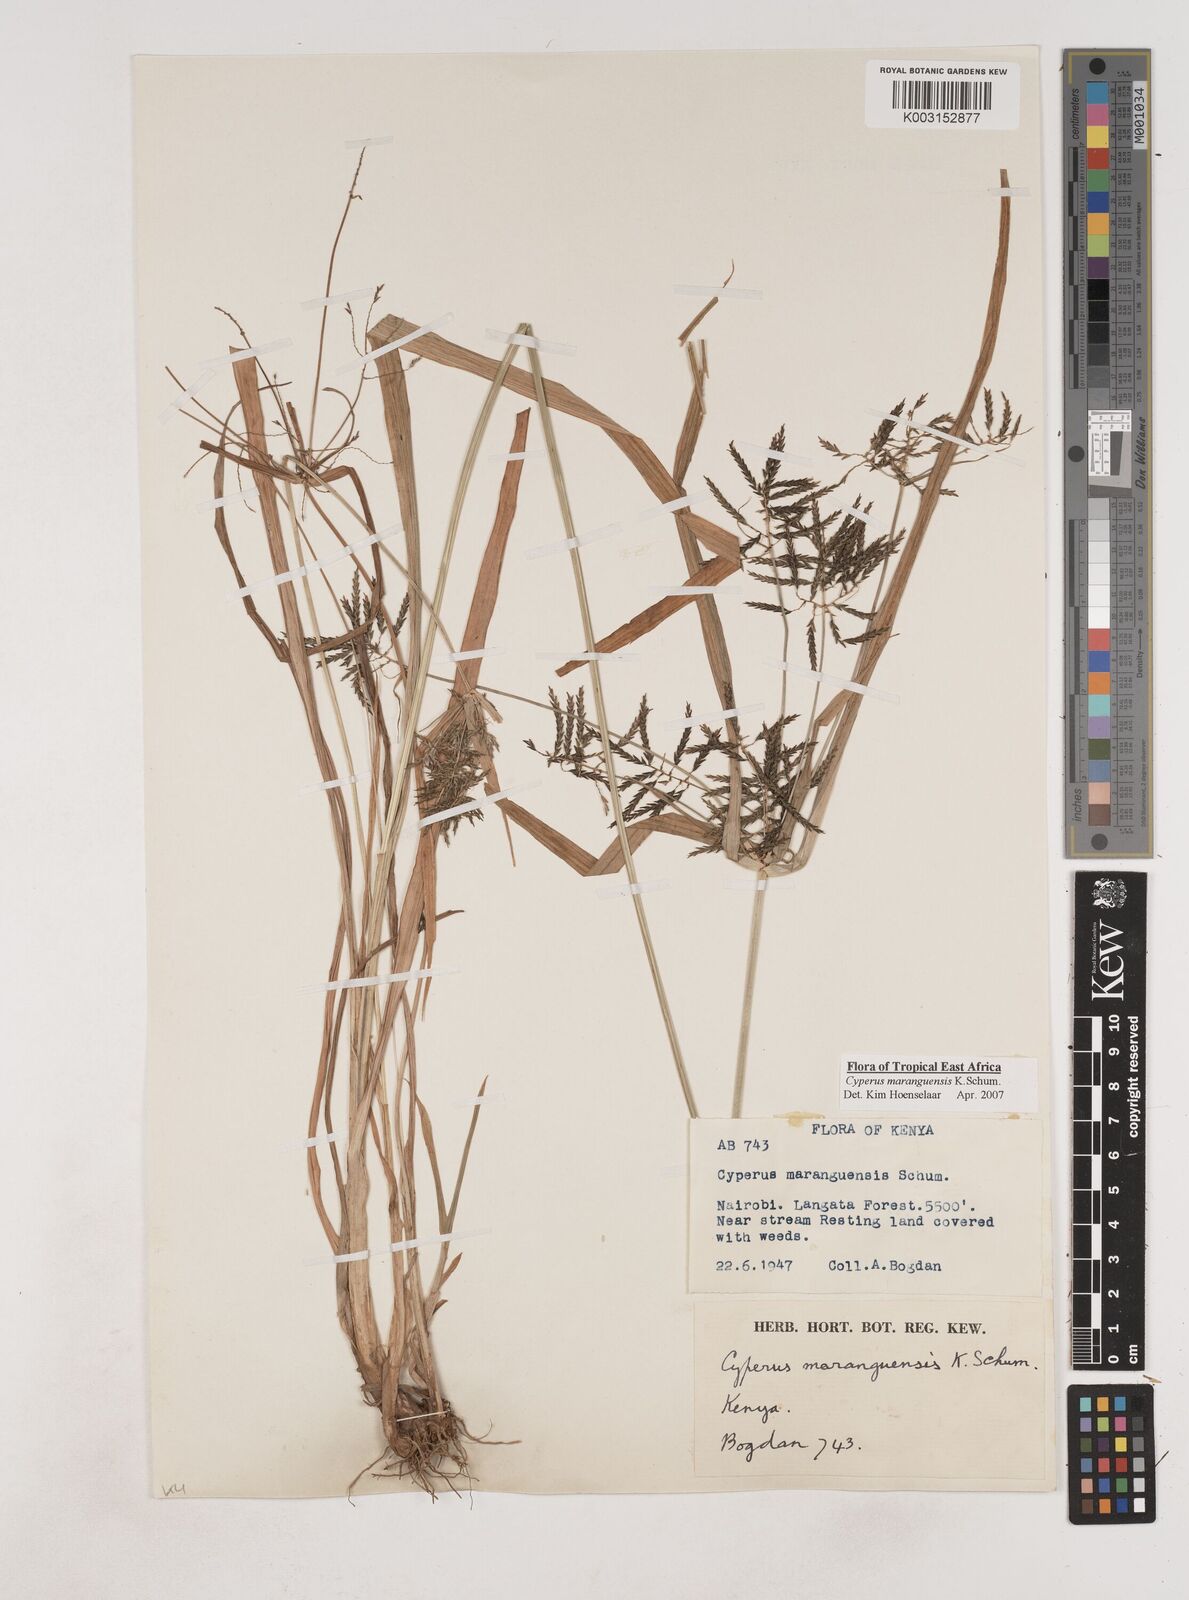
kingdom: Plantae
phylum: Tracheophyta
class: Liliopsida
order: Poales
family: Cyperaceae
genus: Cyperus
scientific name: Cyperus maranguensis
